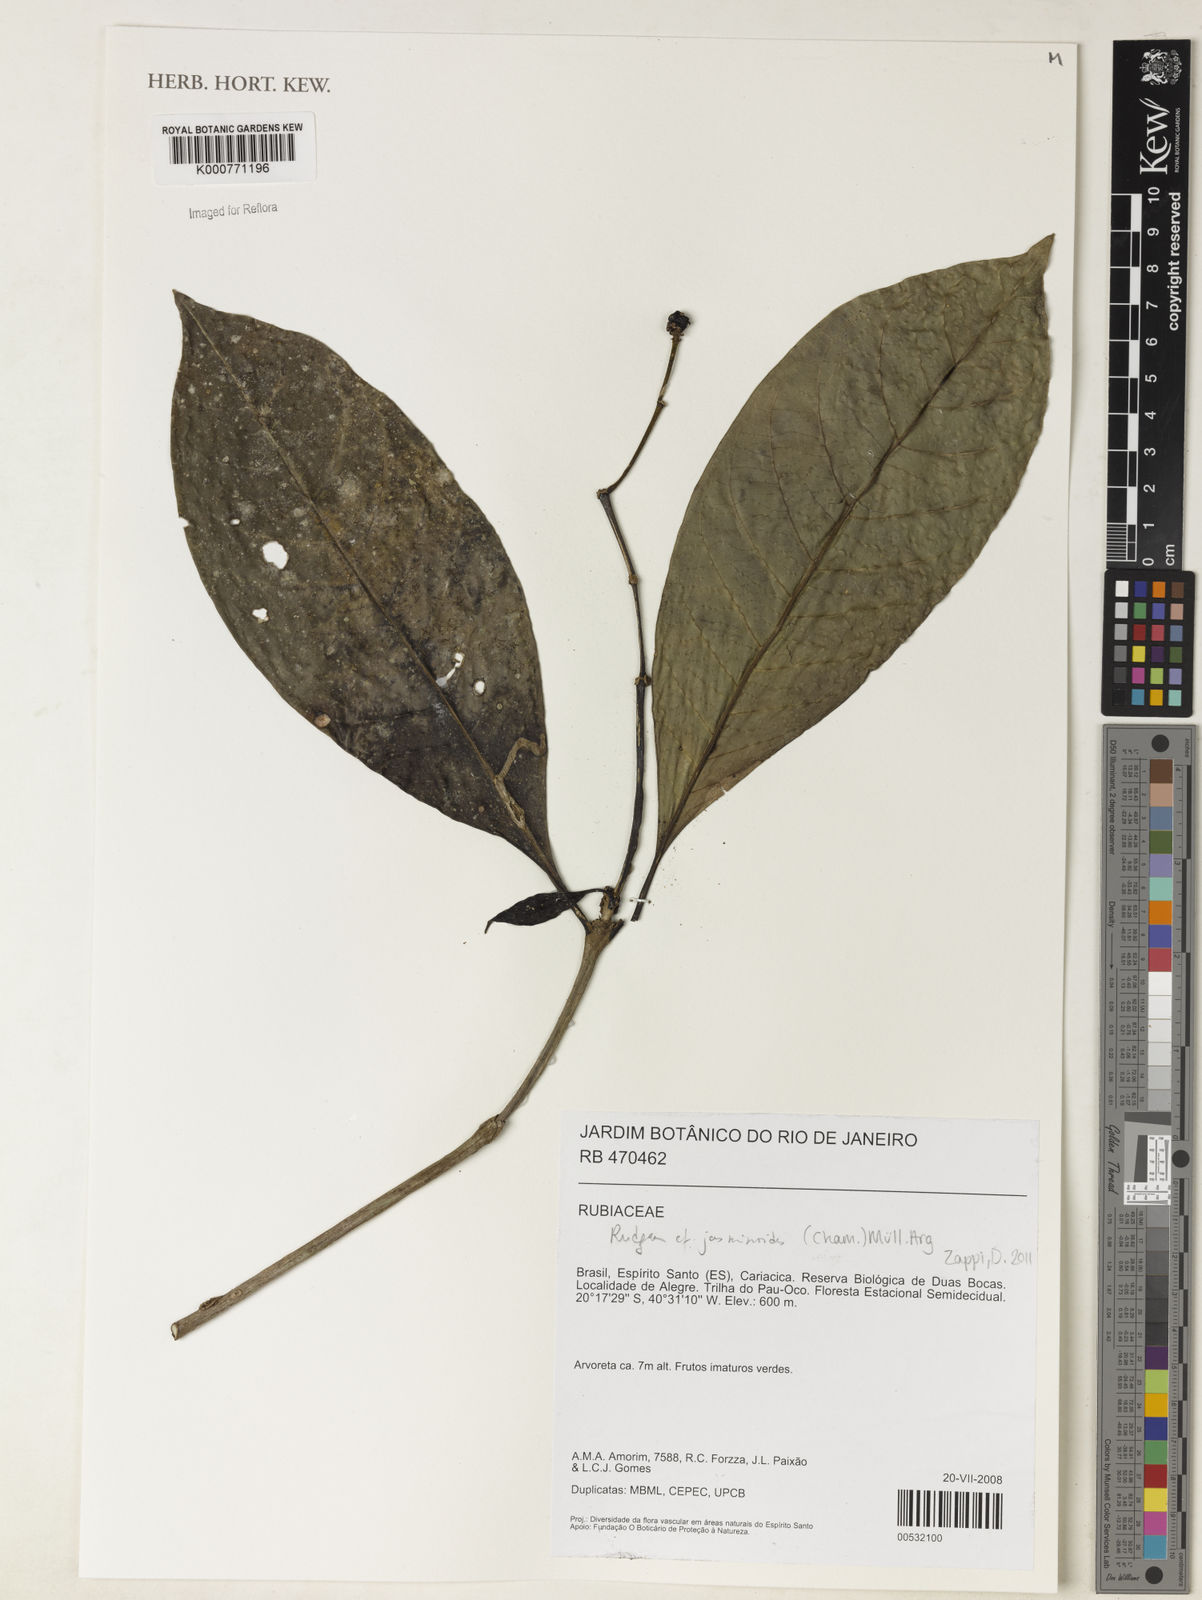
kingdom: Plantae
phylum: Tracheophyta
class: Magnoliopsida
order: Gentianales
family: Rubiaceae
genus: Rudgea
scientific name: Rudgea
